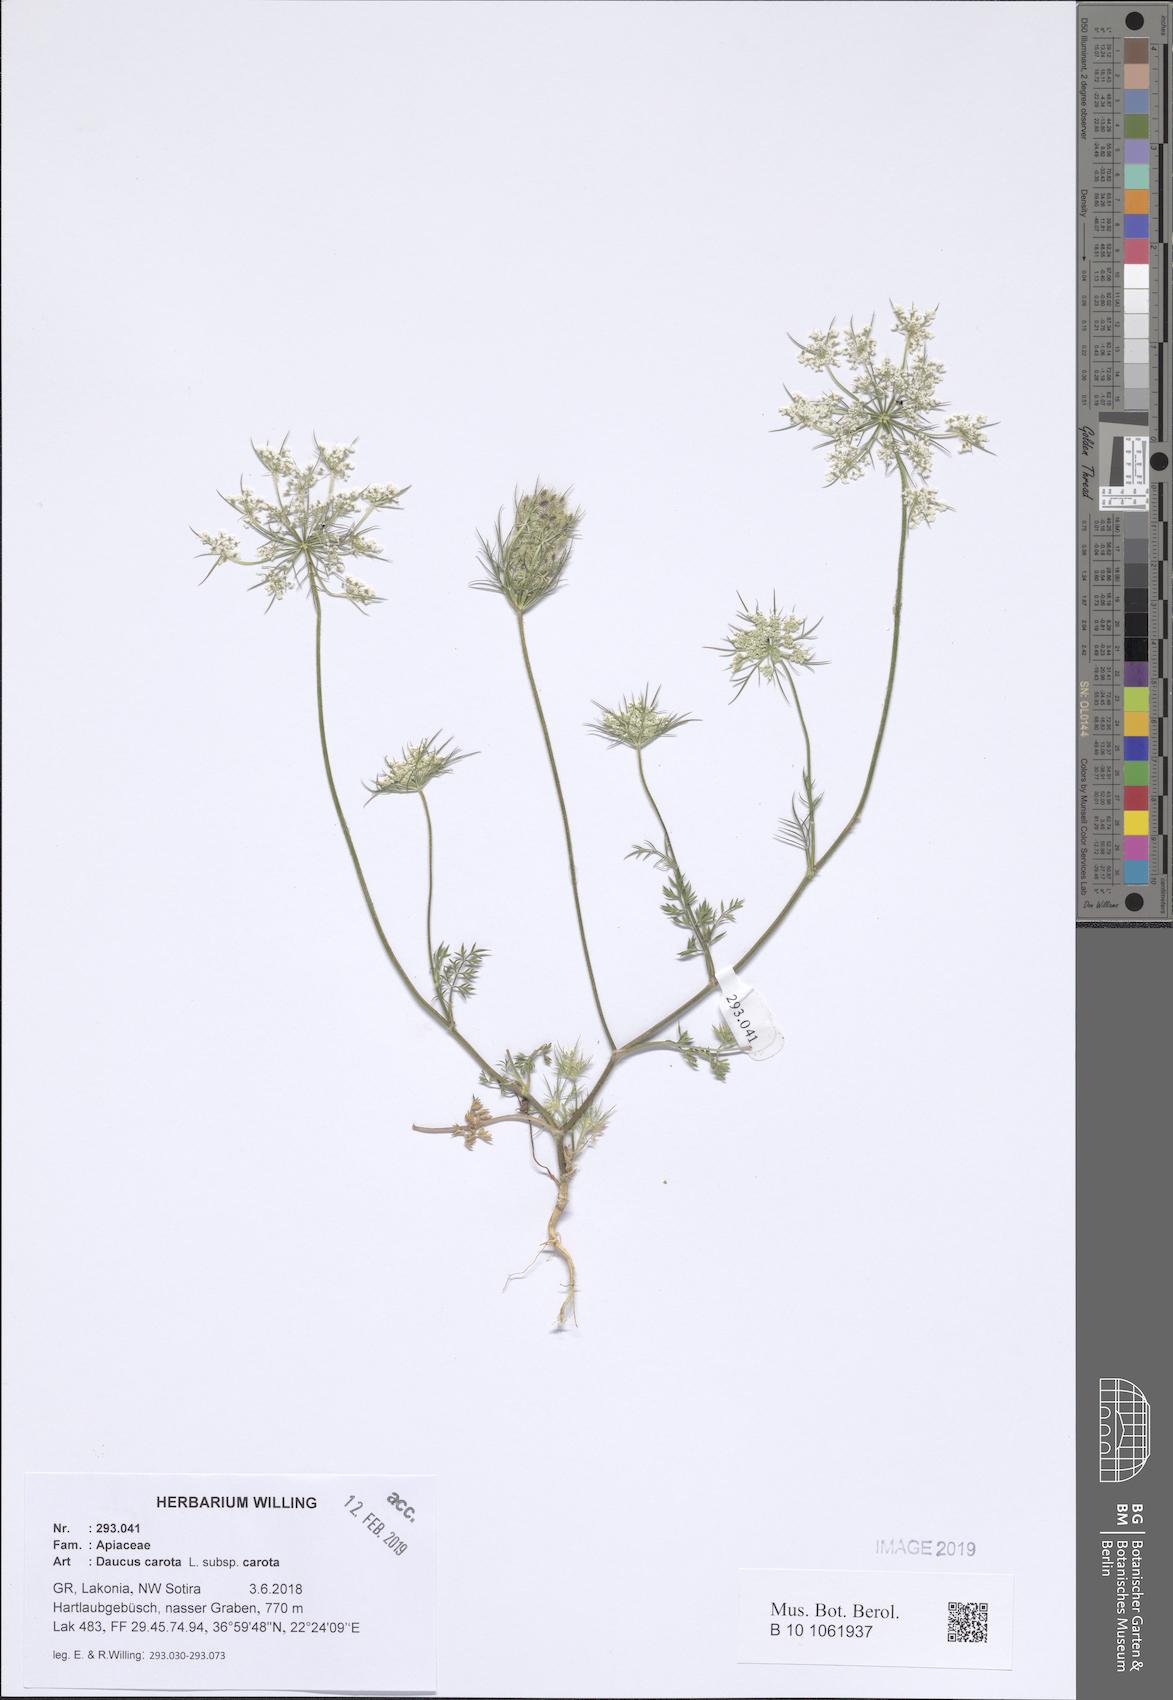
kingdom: Plantae
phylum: Tracheophyta
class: Magnoliopsida
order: Apiales
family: Apiaceae
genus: Daucus
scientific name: Daucus carota
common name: Wild carrot
